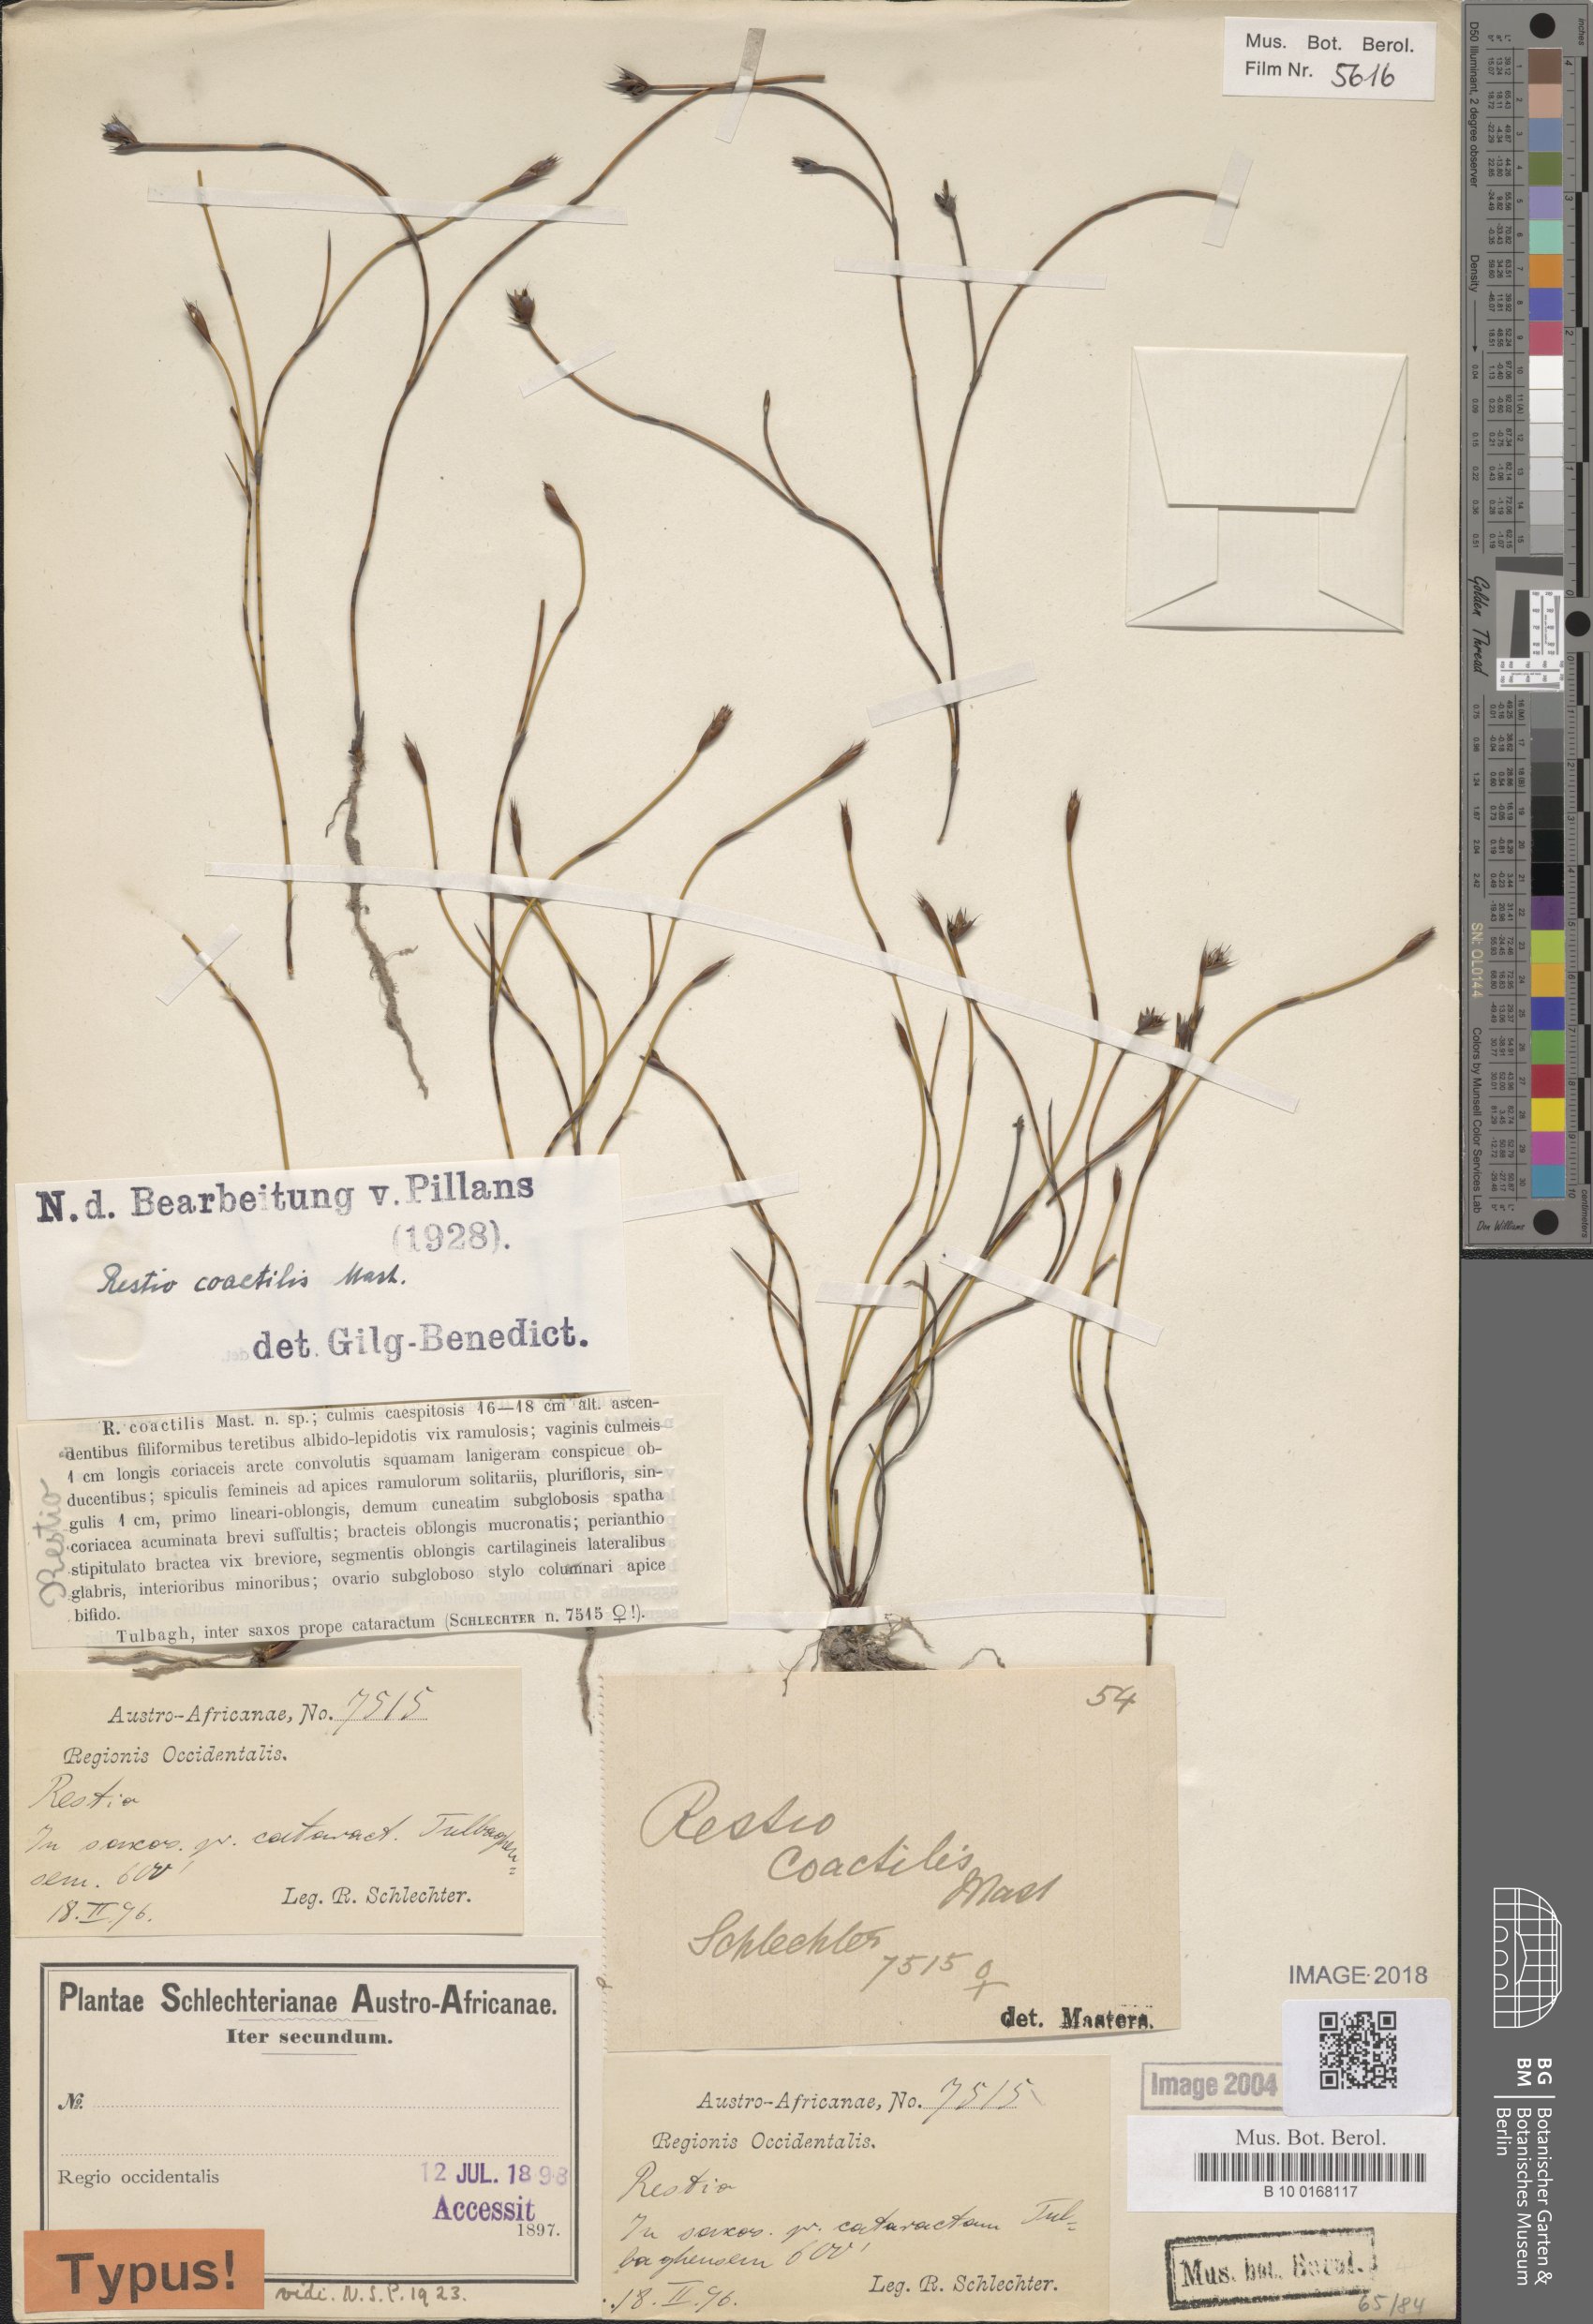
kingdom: Plantae
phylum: Tracheophyta
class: Liliopsida
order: Poales
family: Restionaceae
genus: Restio
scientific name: Restio coactilis
